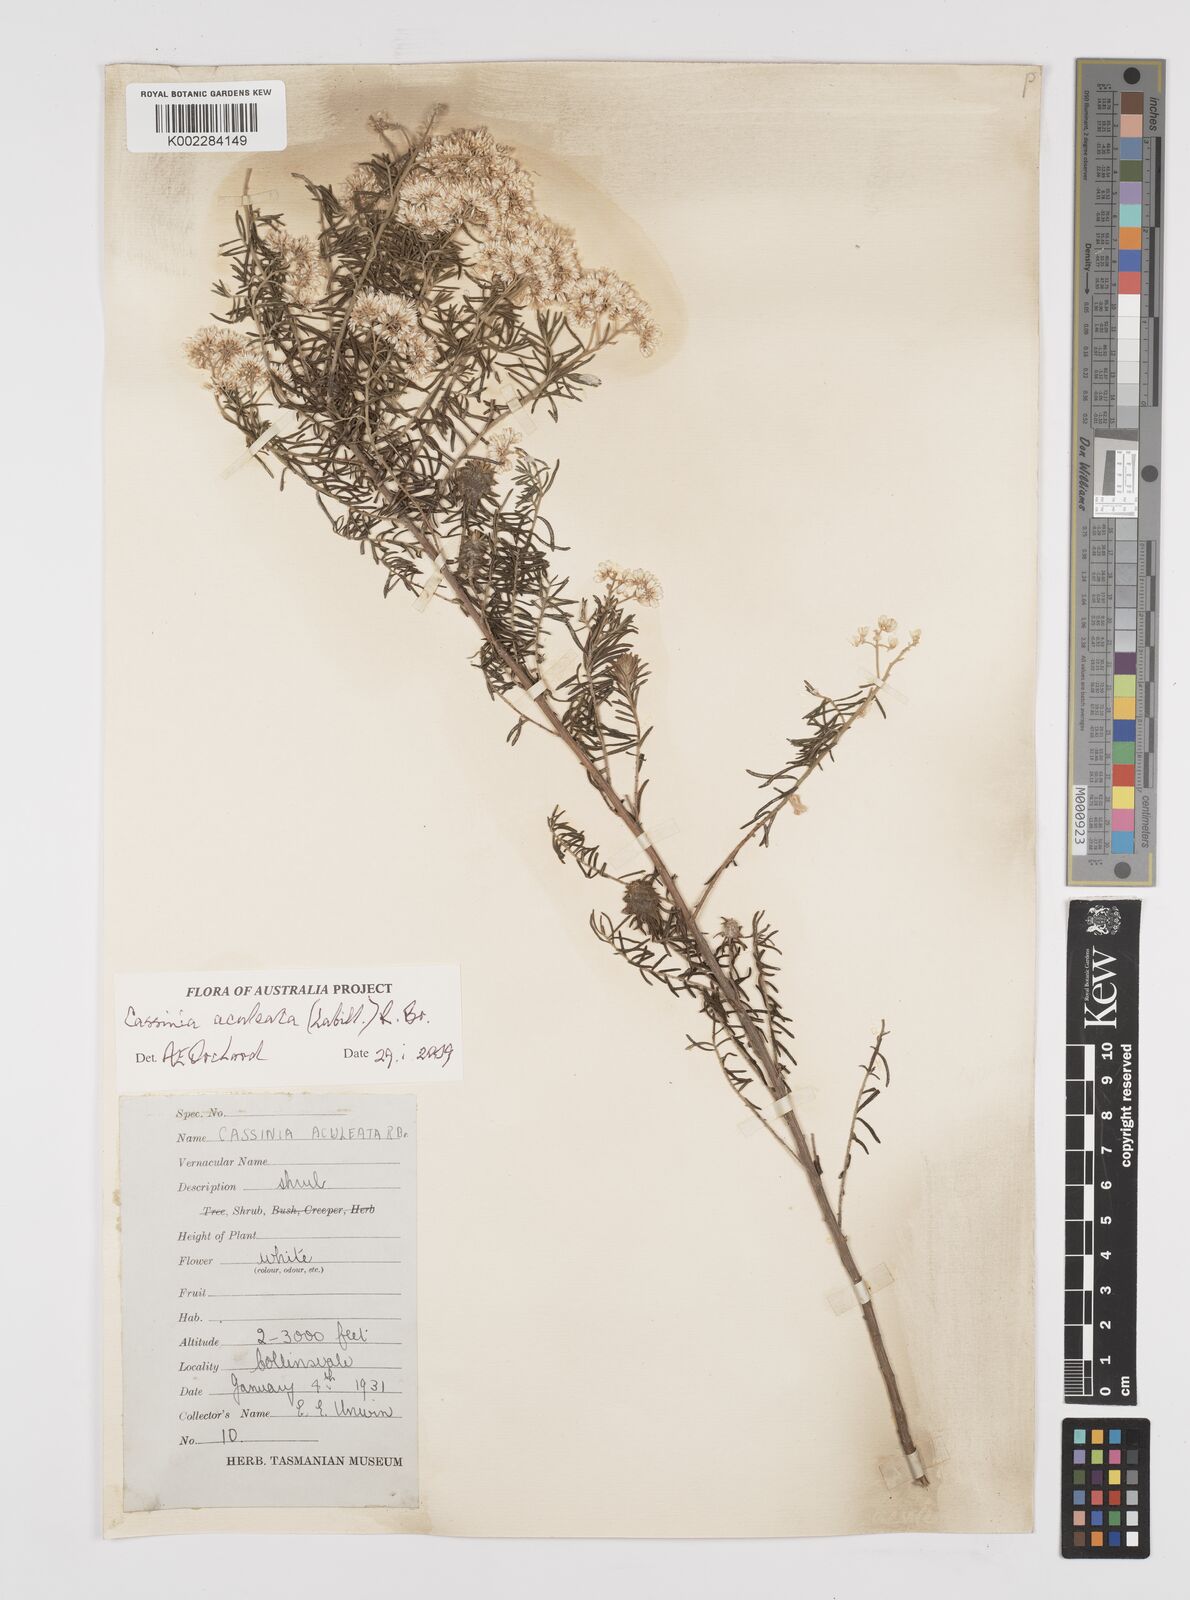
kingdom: Plantae
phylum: Tracheophyta
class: Magnoliopsida
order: Asterales
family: Asteraceae
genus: Cassinia
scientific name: Cassinia aculeata
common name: Australian tauhinu
